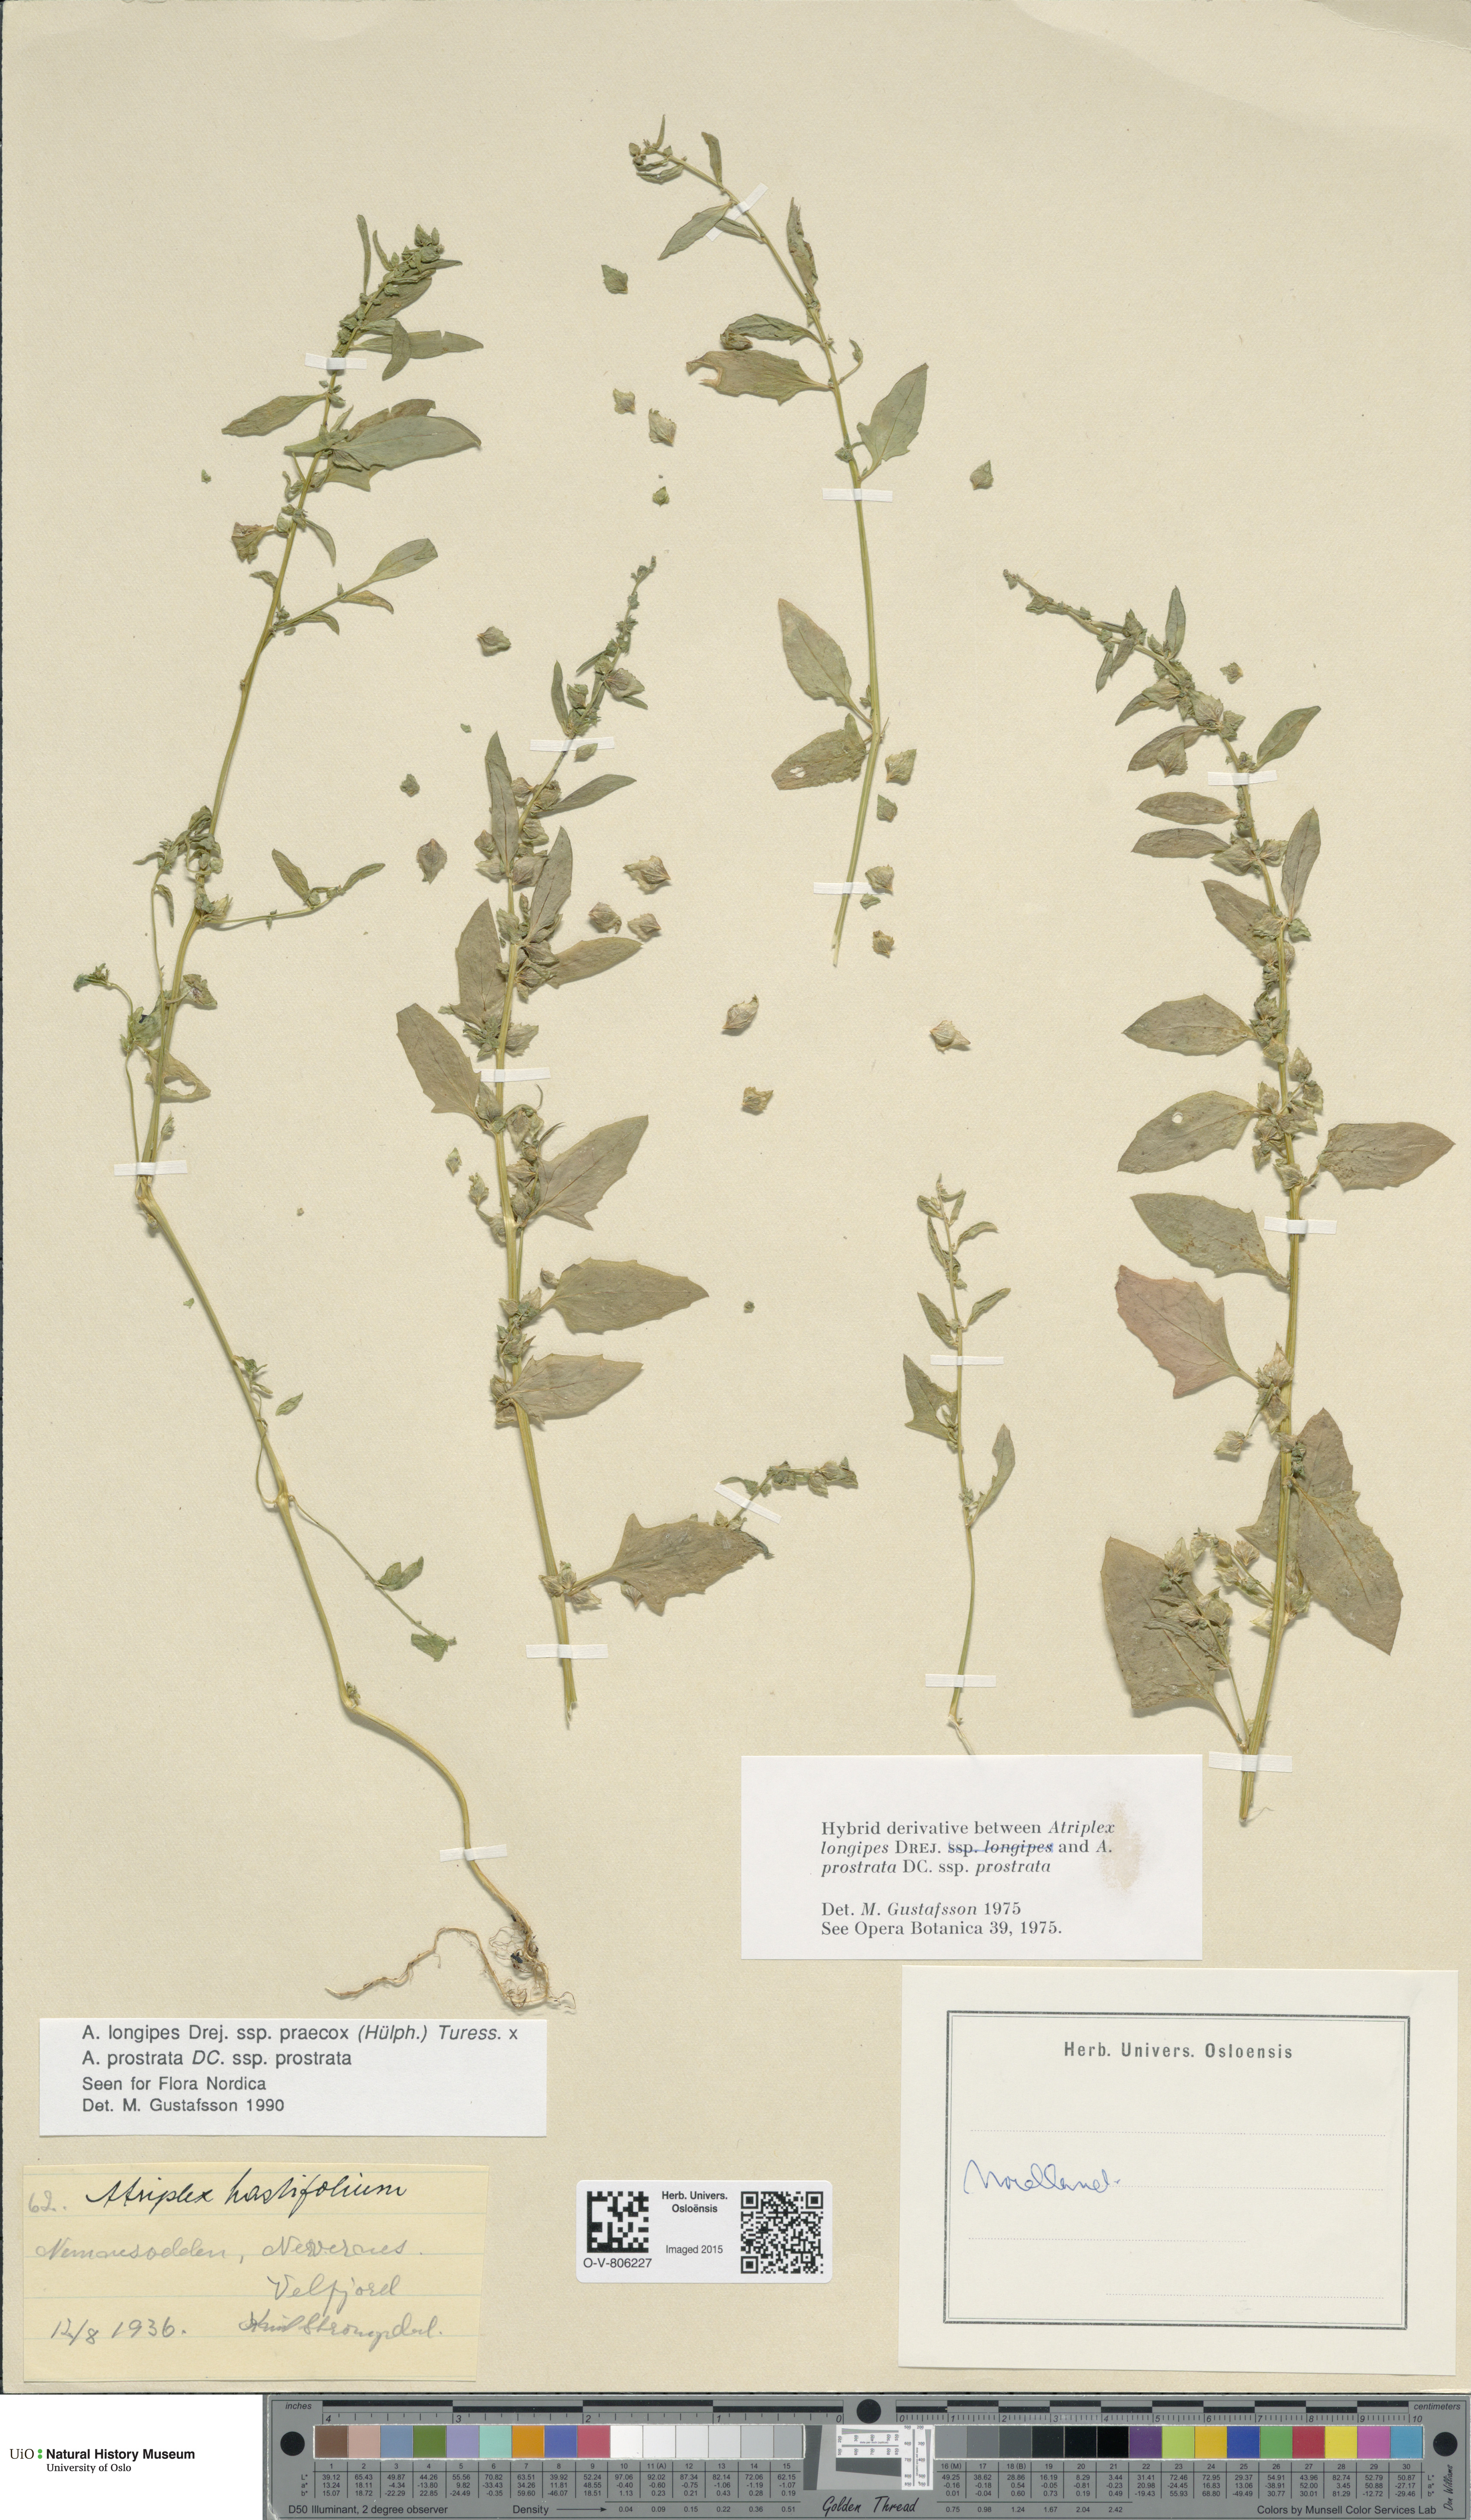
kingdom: Plantae
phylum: Tracheophyta
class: Magnoliopsida
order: Caryophyllales
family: Amaranthaceae
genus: Atriplex
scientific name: Atriplex
